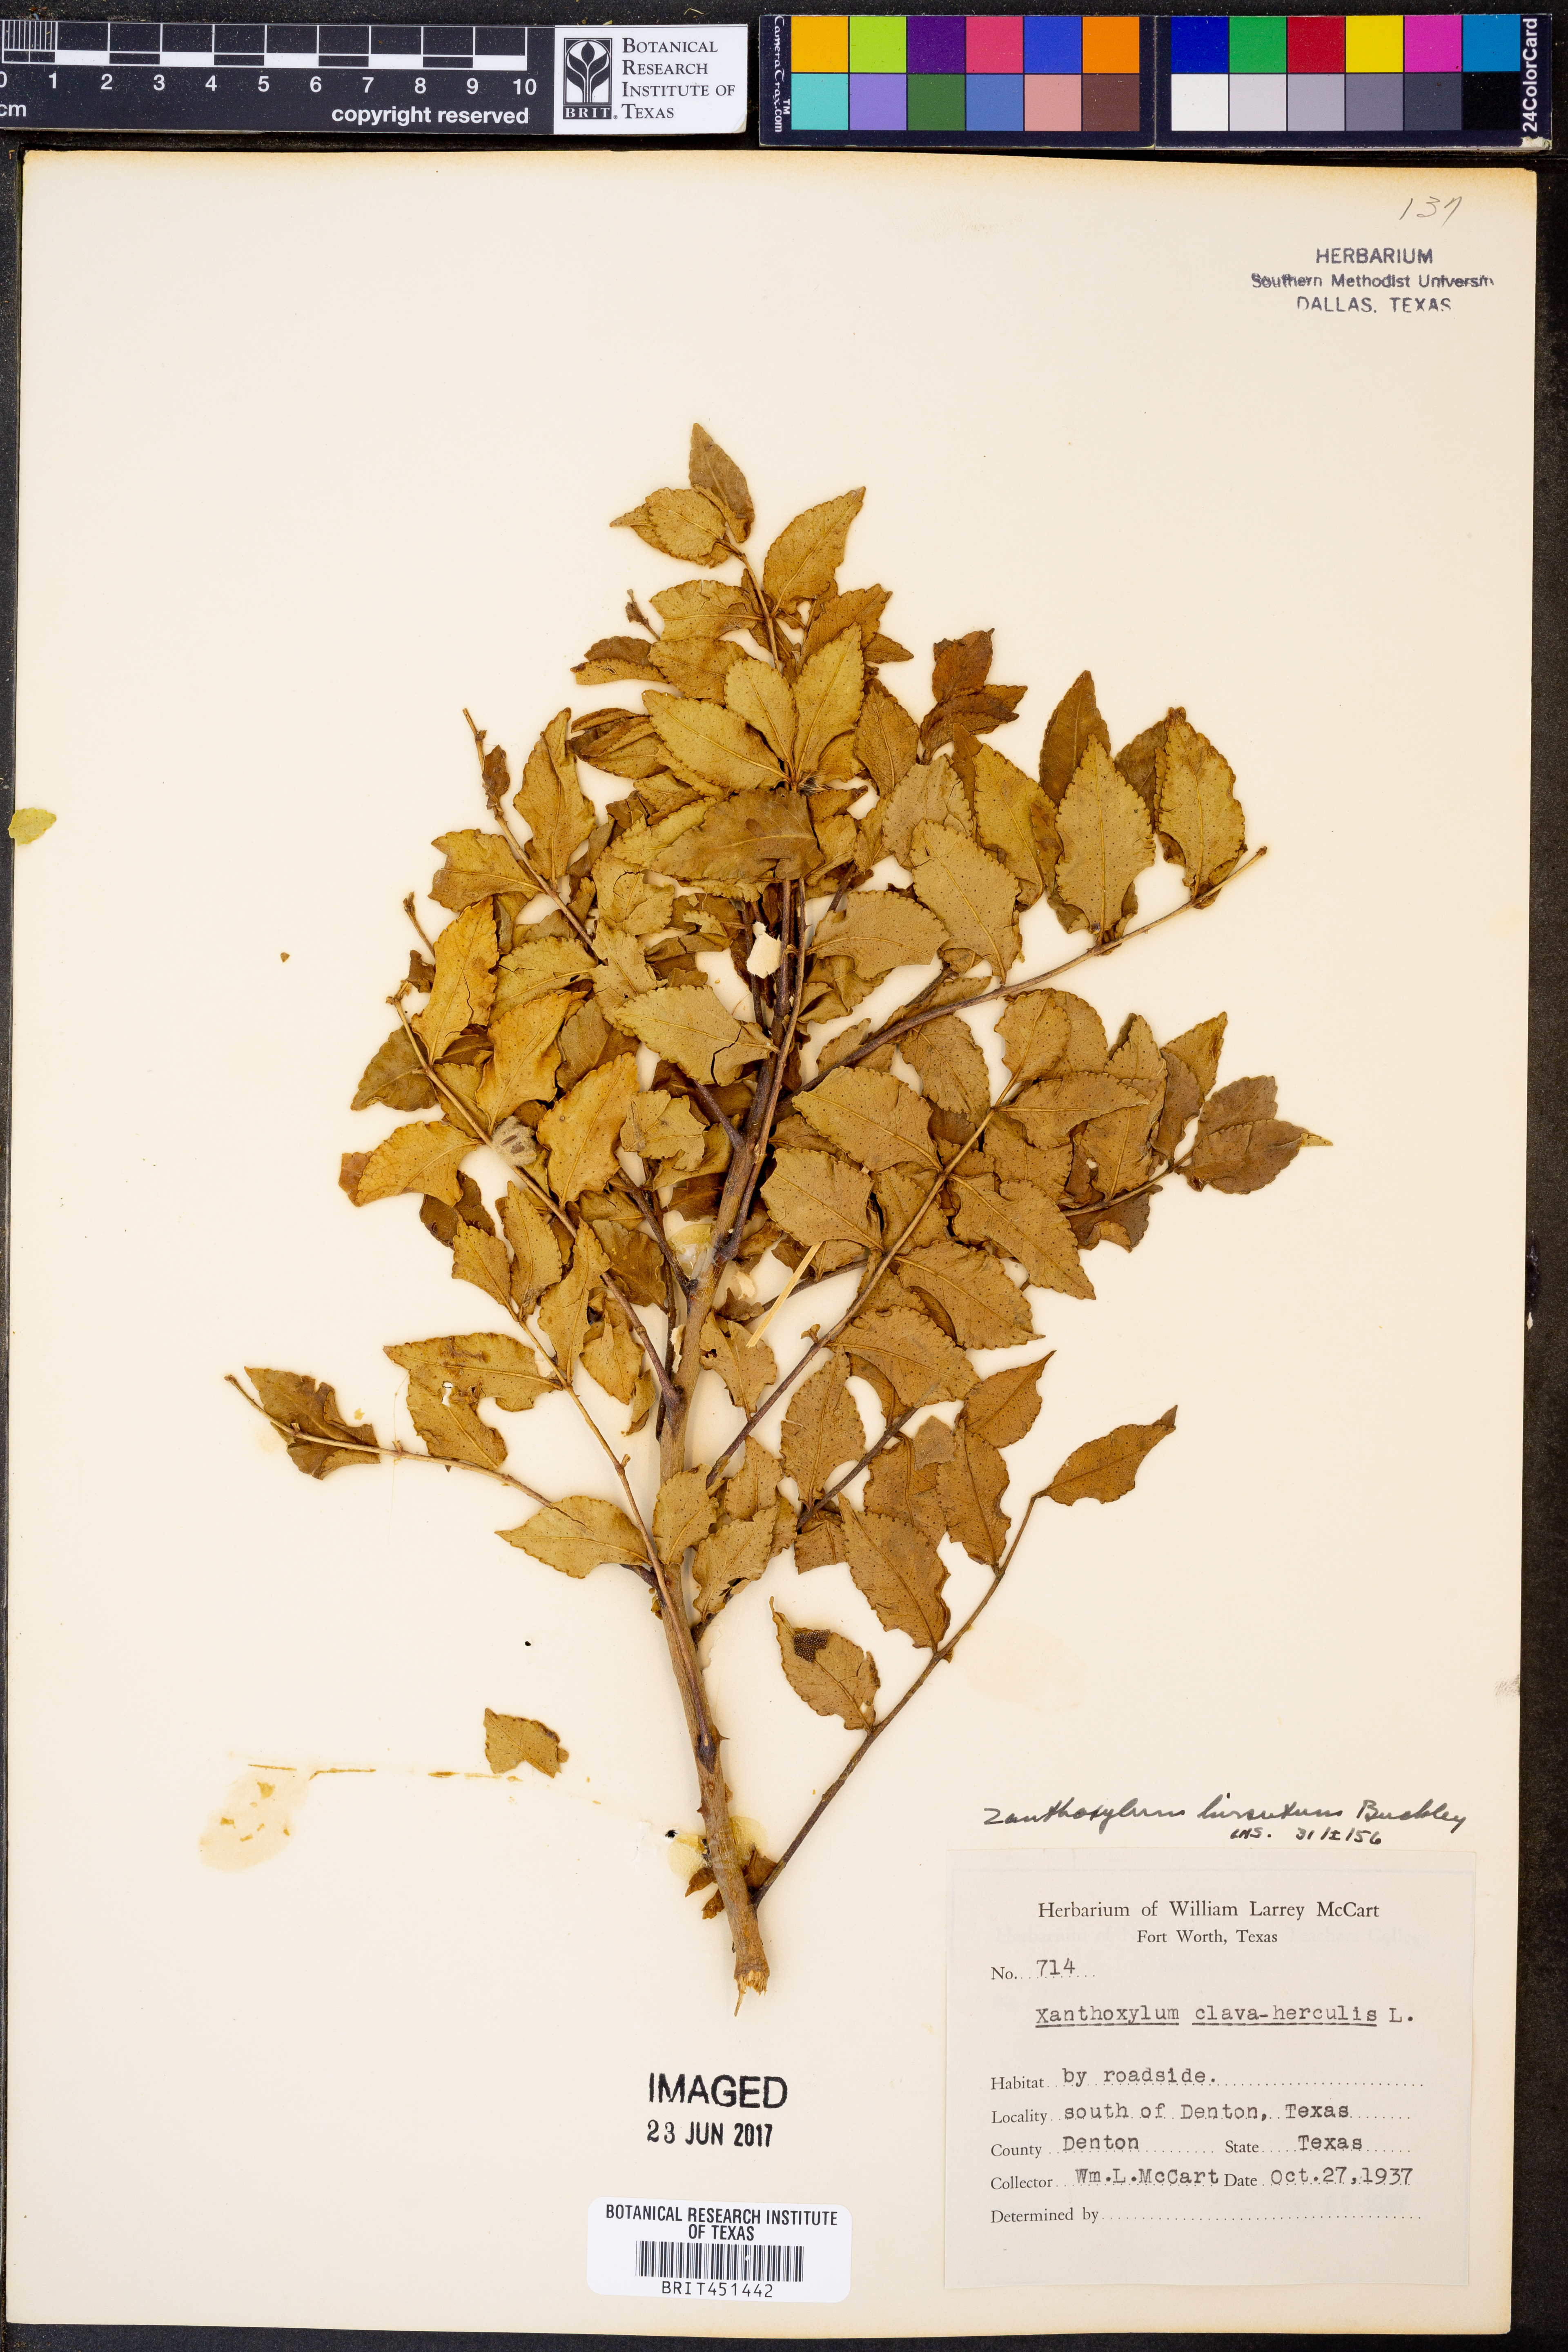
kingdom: Plantae
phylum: Tracheophyta
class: Magnoliopsida
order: Sapindales
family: Rutaceae
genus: Zanthoxylum
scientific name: Zanthoxylum clava-herculis
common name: Hercules'-club
